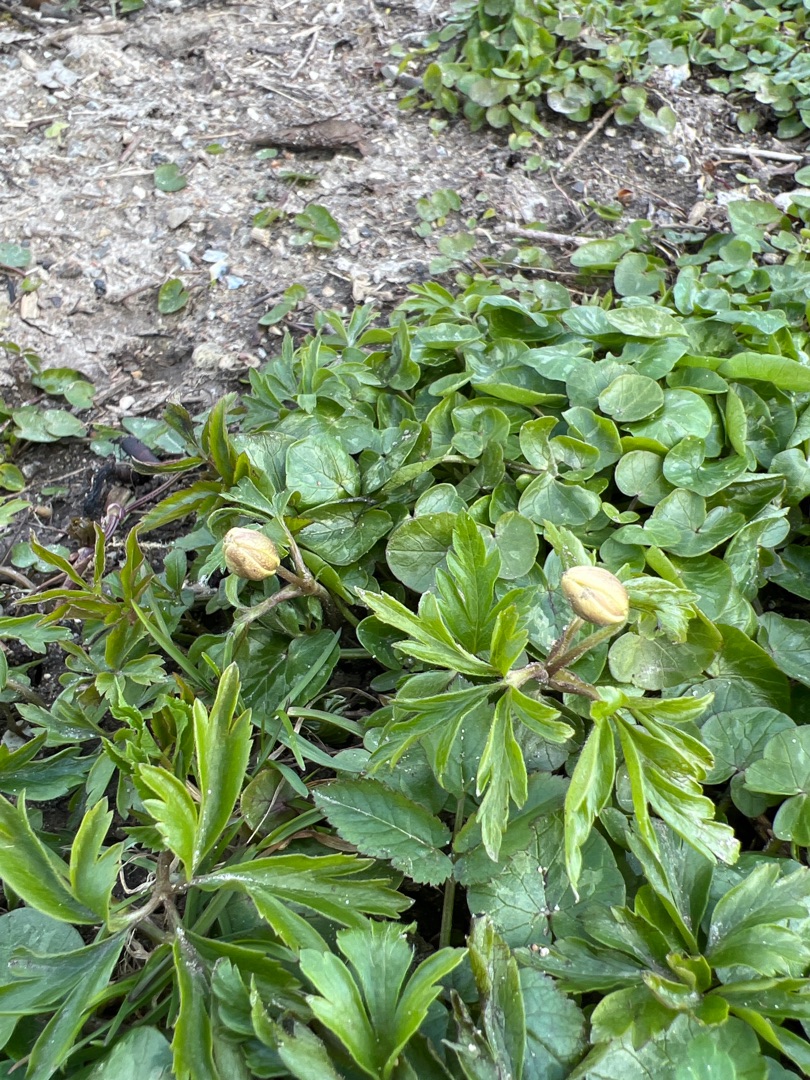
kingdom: Plantae
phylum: Tracheophyta
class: Magnoliopsida
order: Ranunculales
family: Ranunculaceae
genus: Anemone
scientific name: Anemone nemorosa
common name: Hvid anemone
